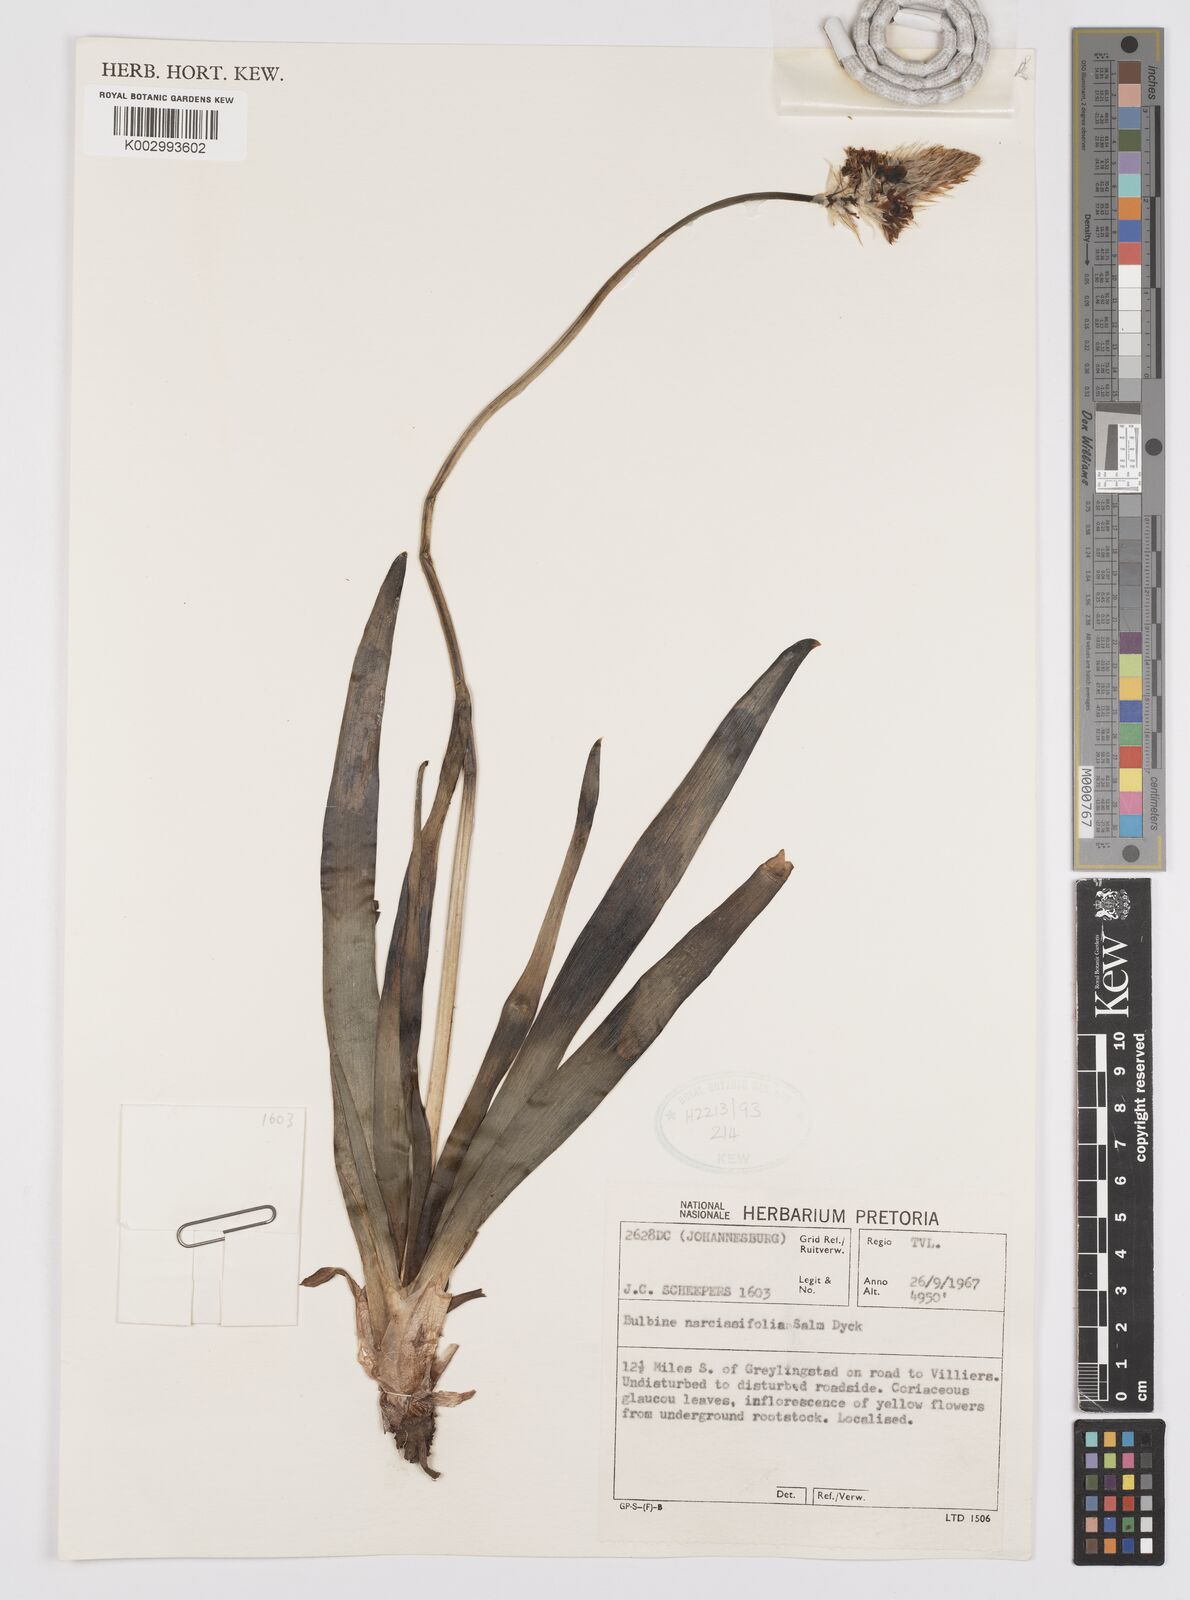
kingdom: Plantae
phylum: Tracheophyta
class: Liliopsida
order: Asparagales
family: Asphodelaceae
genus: Bulbine
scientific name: Bulbine narcissifolia
